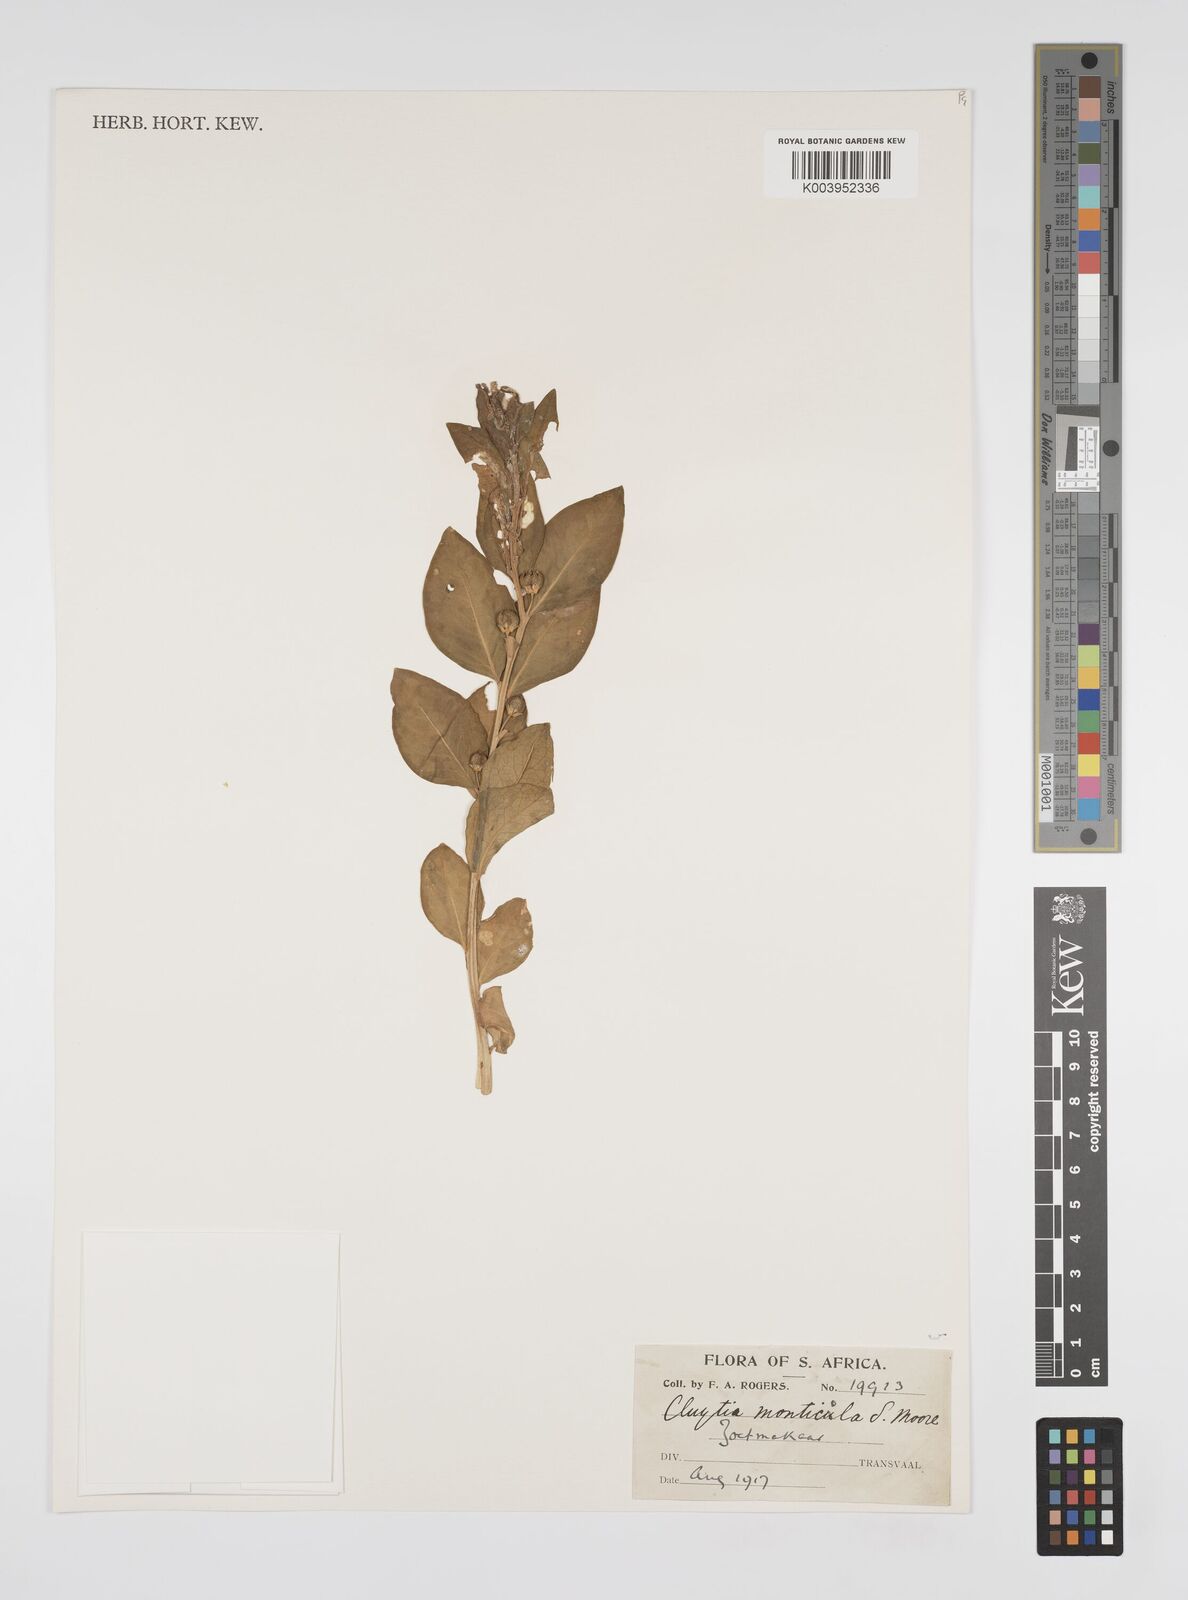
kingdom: Plantae
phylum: Tracheophyta
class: Magnoliopsida
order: Malpighiales
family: Peraceae
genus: Clutia
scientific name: Clutia monticola
